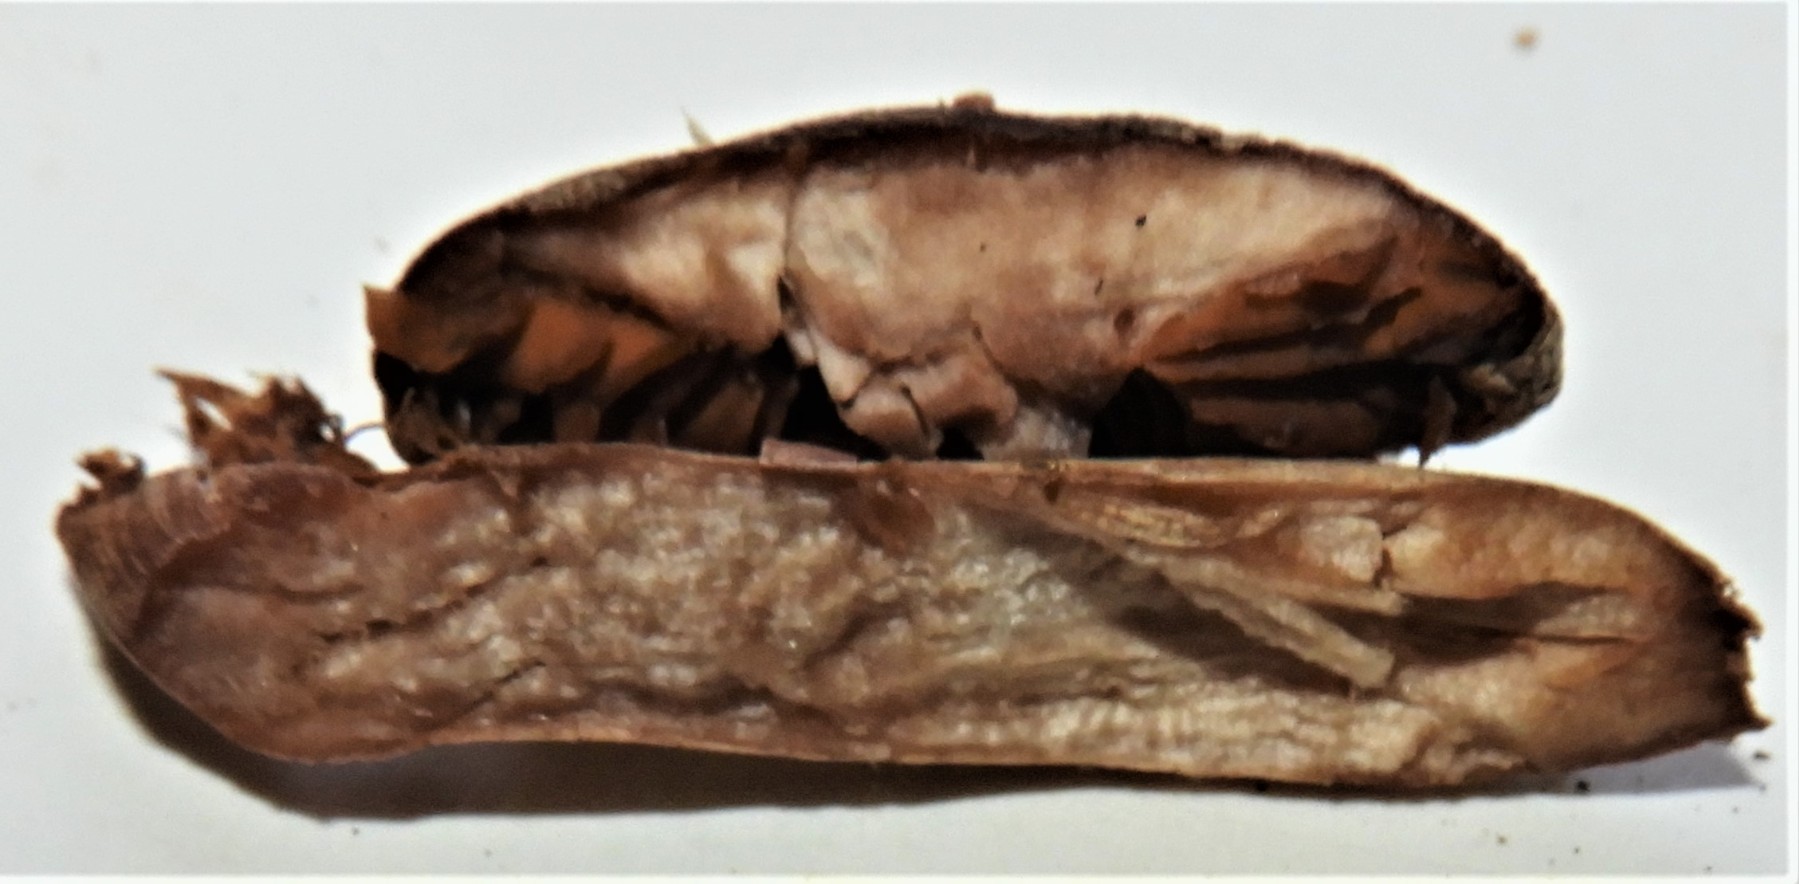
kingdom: Fungi
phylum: Basidiomycota
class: Agaricomycetes
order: Agaricales
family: Cortinariaceae
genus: Cortinarius
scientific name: Cortinarius
